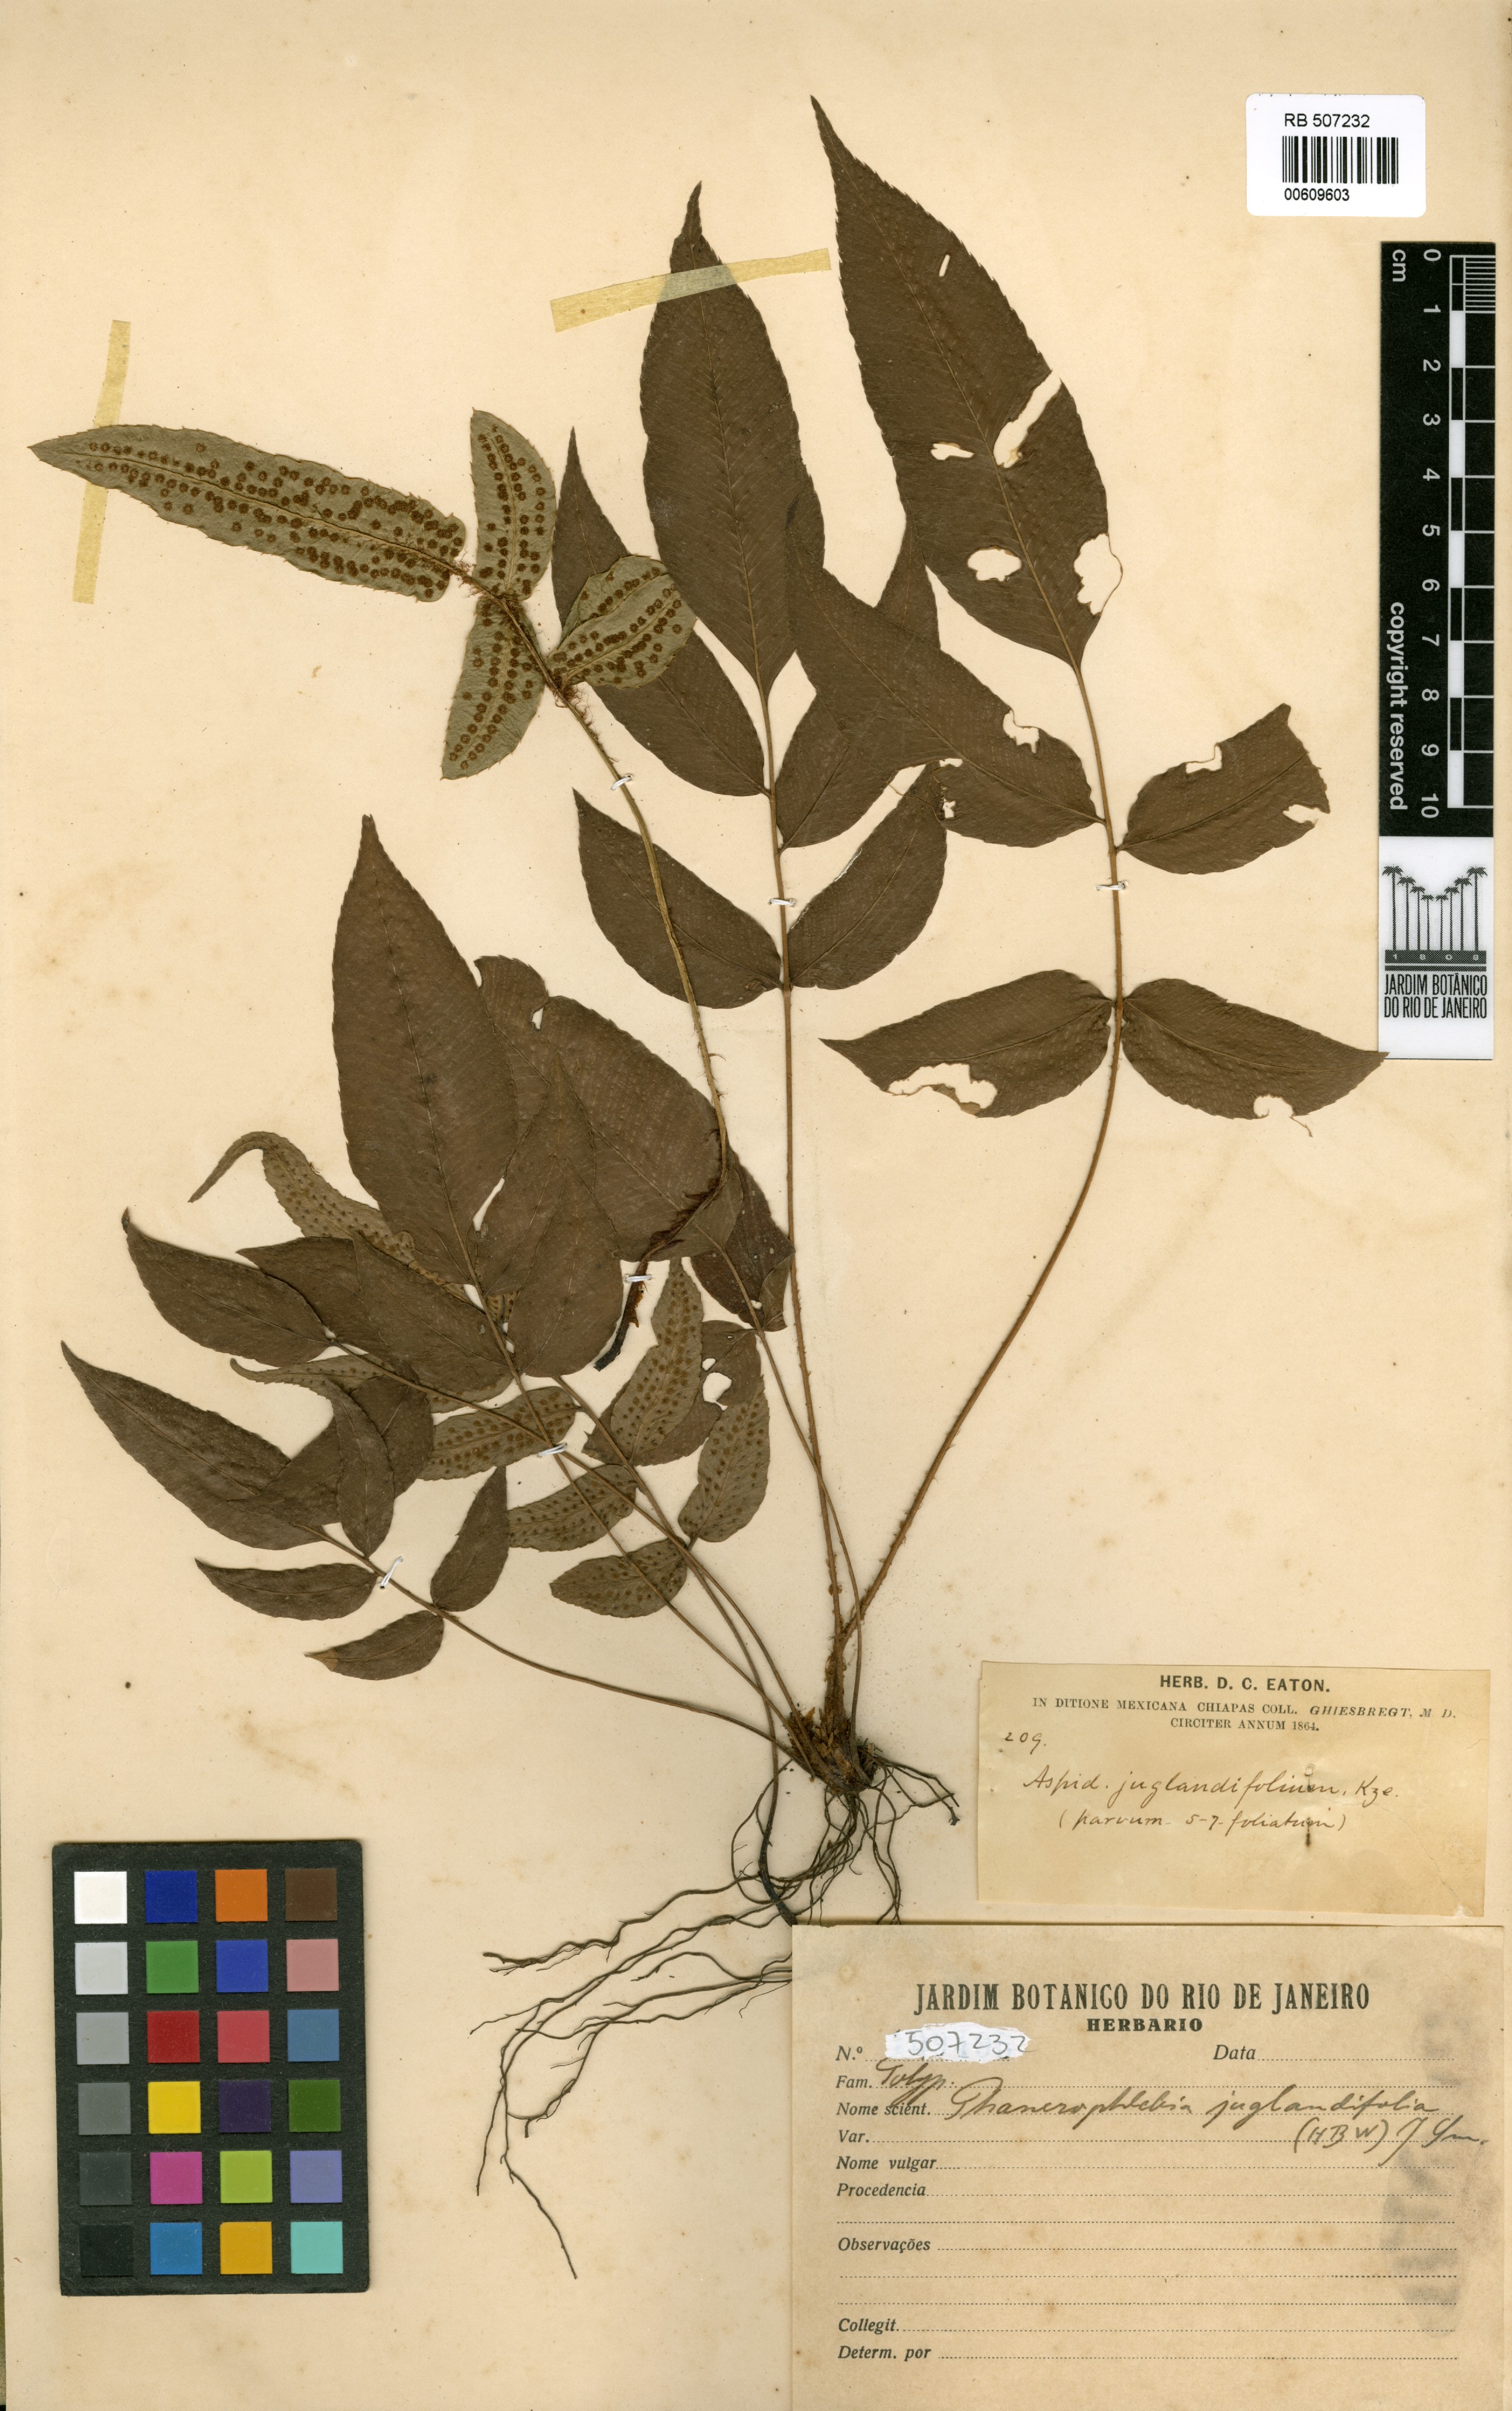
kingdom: Plantae
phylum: Tracheophyta
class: Polypodiopsida
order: Polypodiales
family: Dryopteridaceae
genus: Phanerophlebia
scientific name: Phanerophlebia juglandifolia
